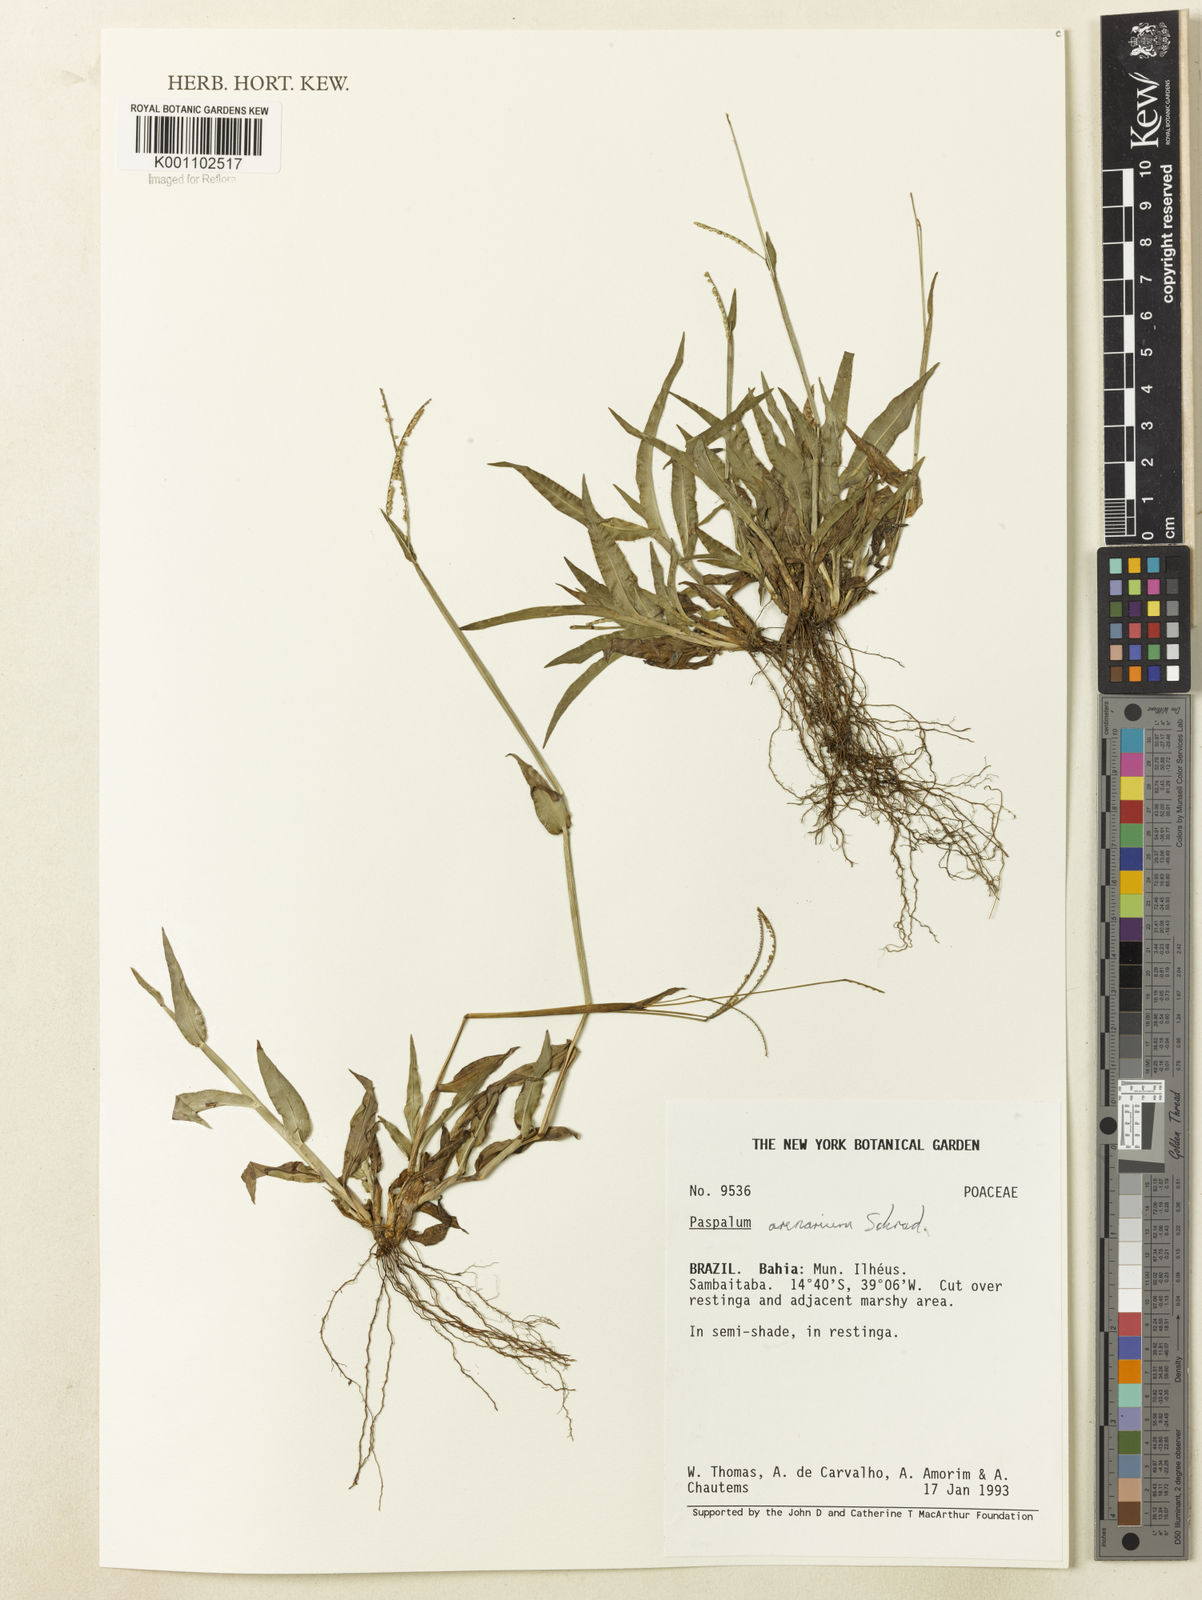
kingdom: Plantae
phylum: Tracheophyta
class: Liliopsida
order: Poales
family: Poaceae
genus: Paspalum
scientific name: Paspalum arenarium
